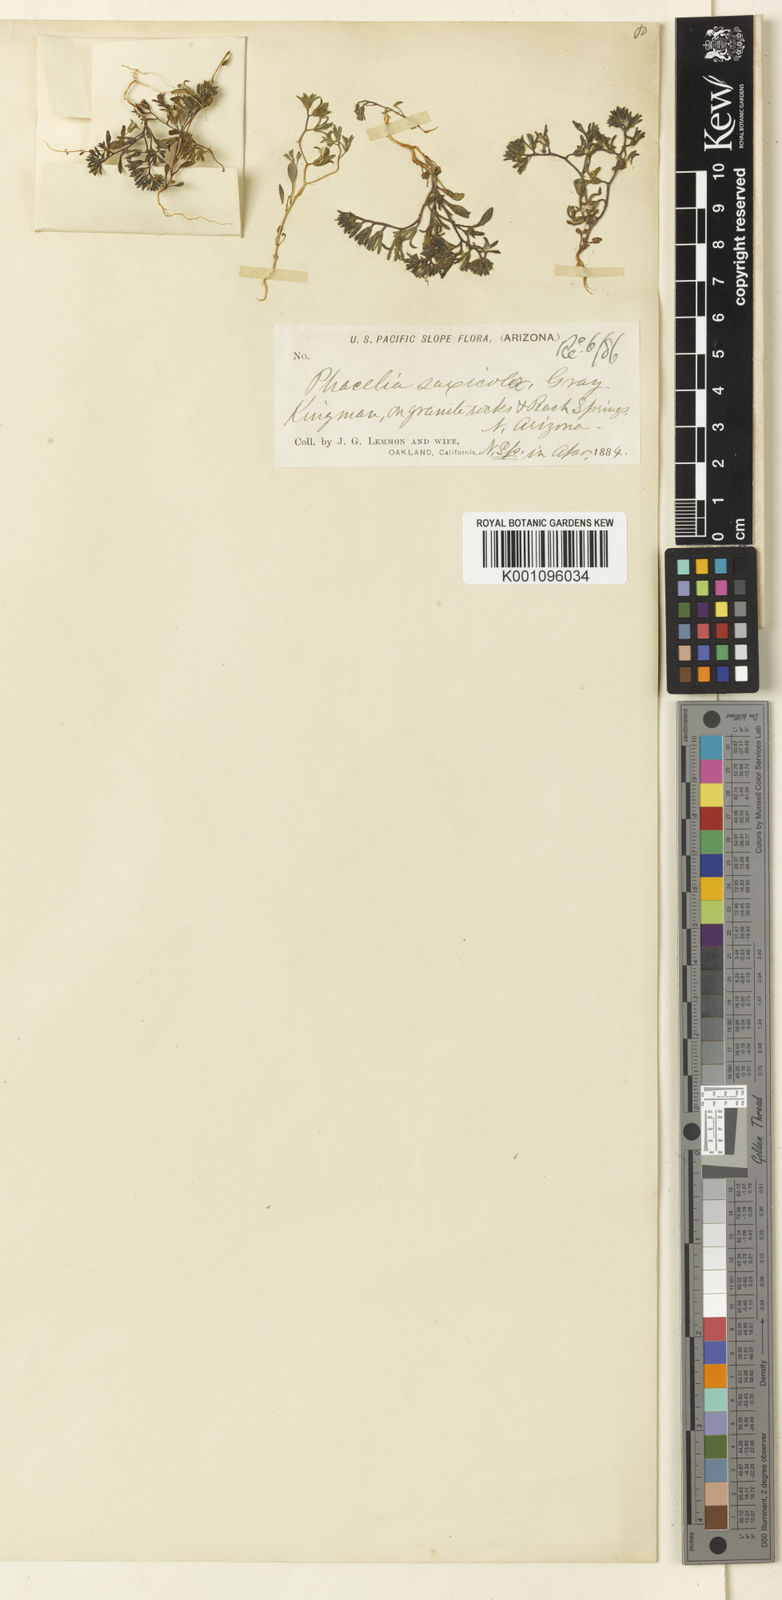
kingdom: Plantae
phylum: Tracheophyta
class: Magnoliopsida
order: Boraginales
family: Hydrophyllaceae
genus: Phacelia
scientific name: Phacelia saxicola
